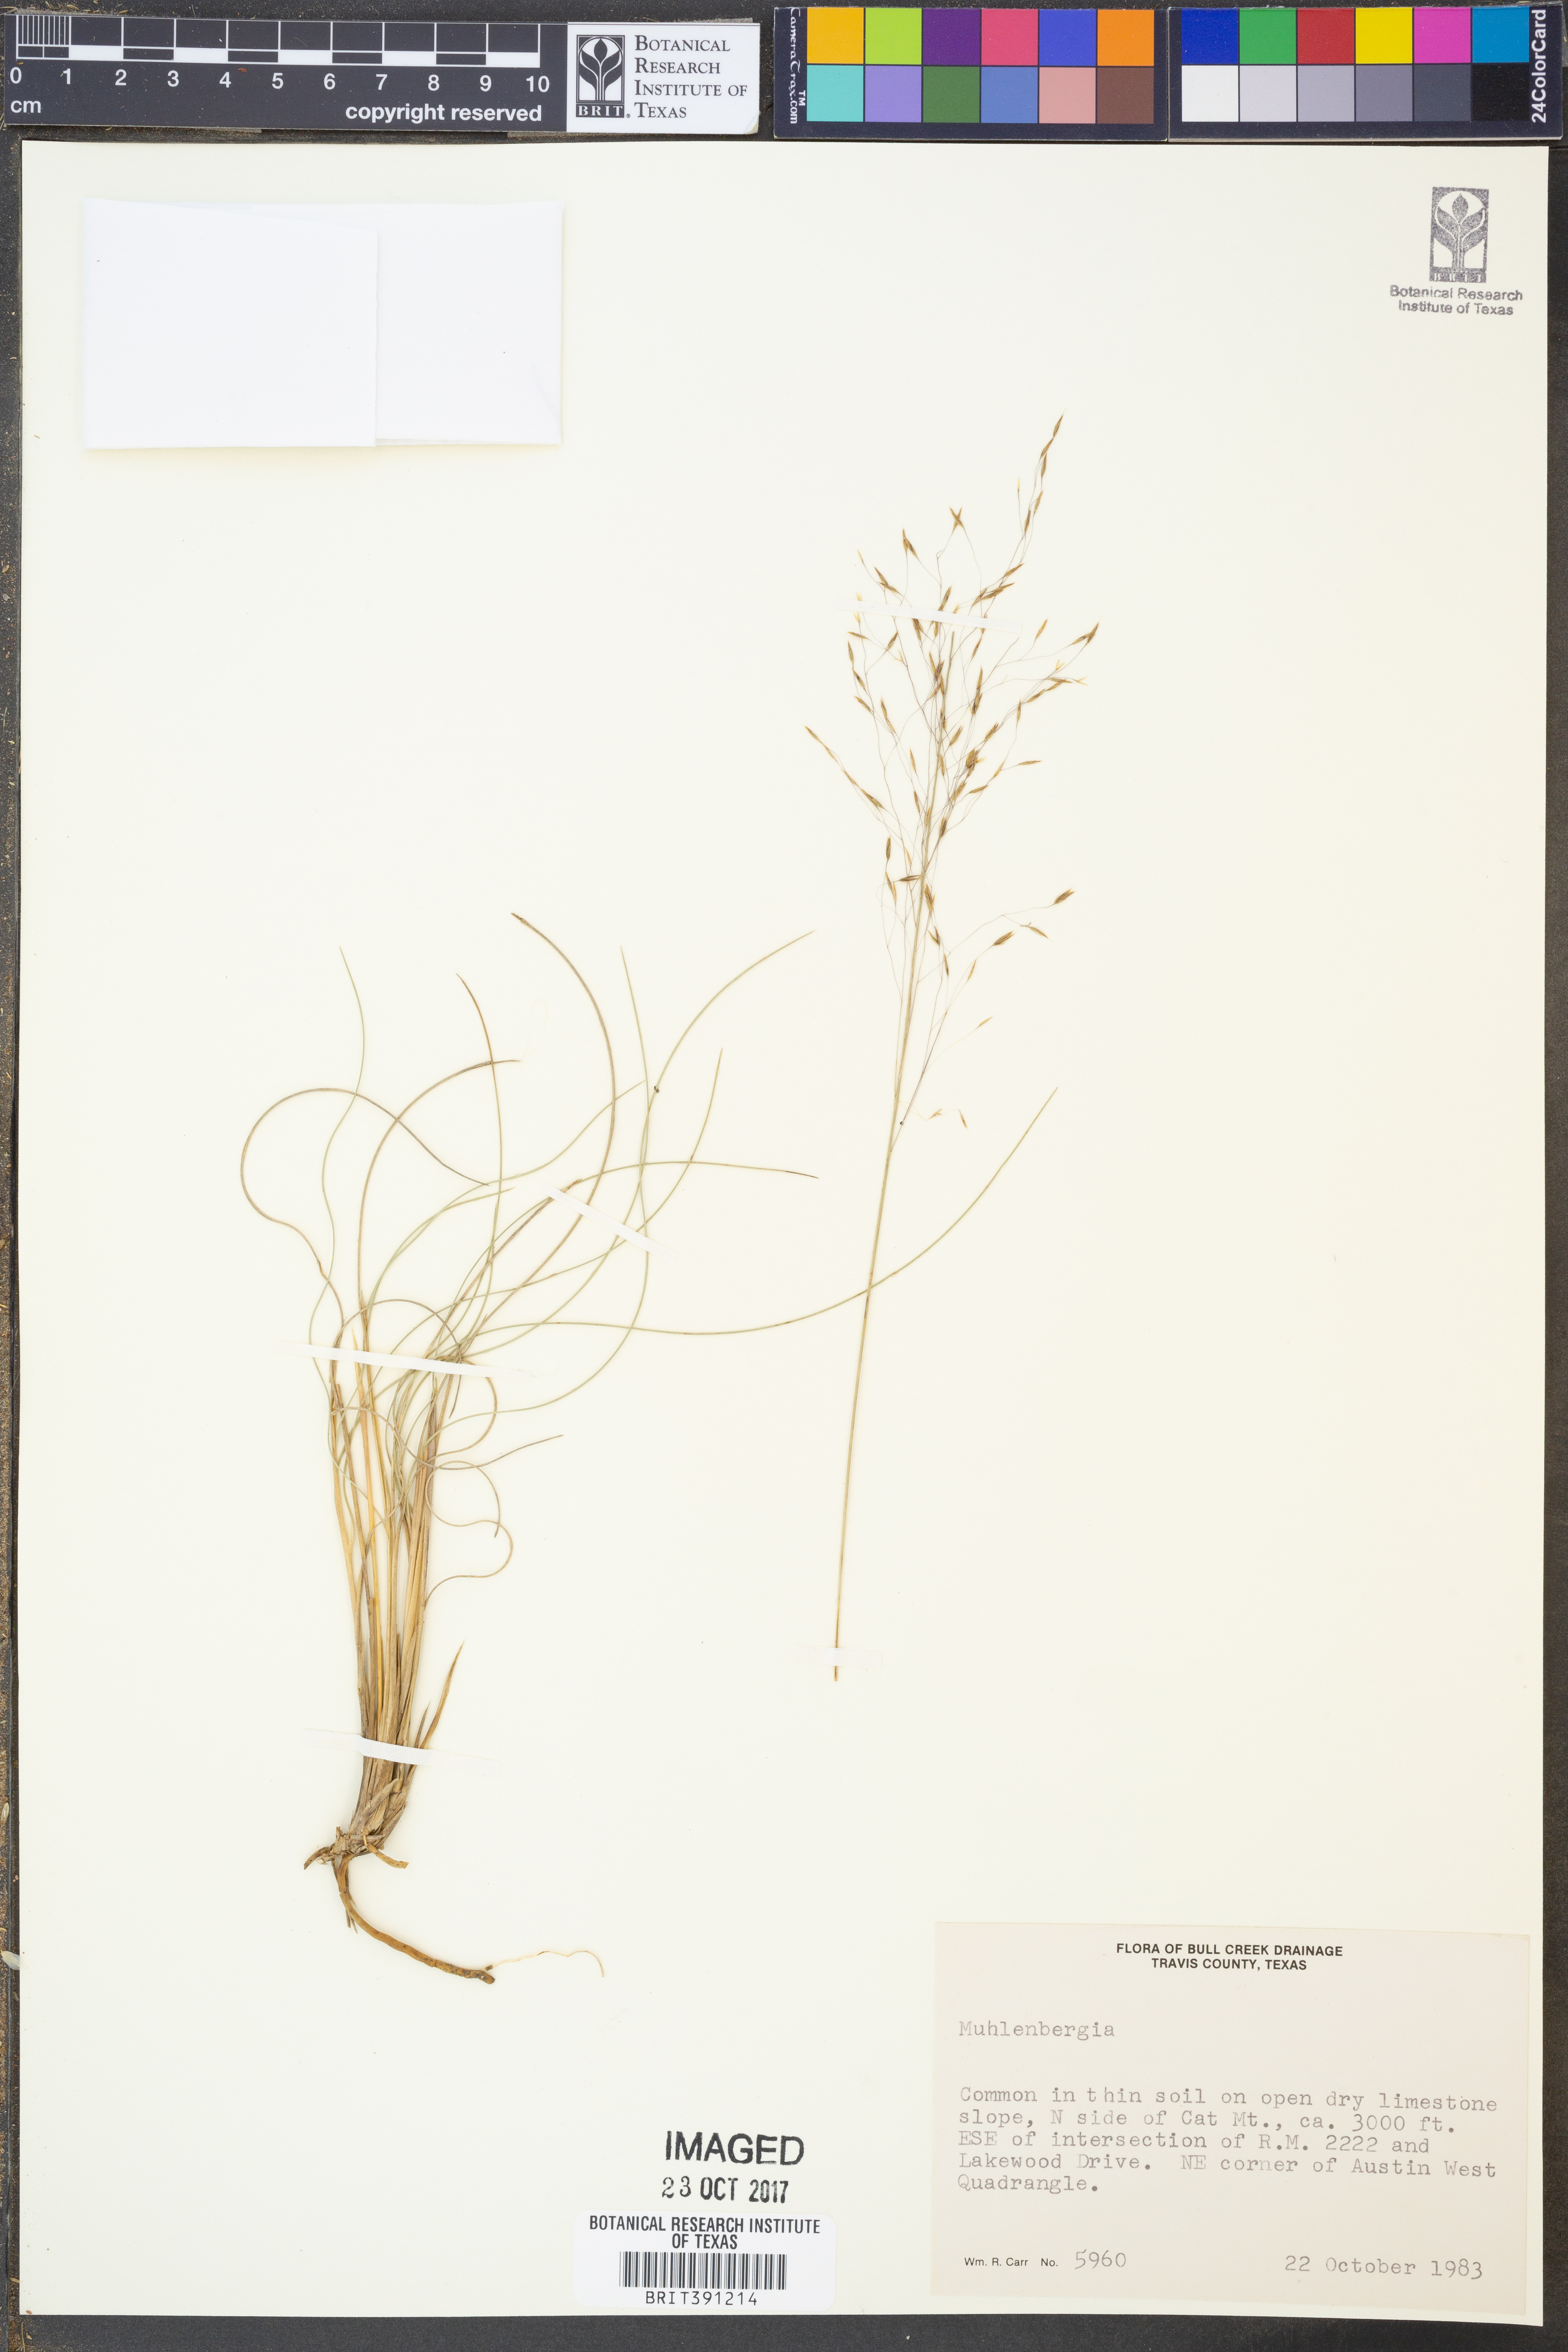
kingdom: Plantae
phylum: Tracheophyta
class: Liliopsida
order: Poales
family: Poaceae
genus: Muhlenbergia
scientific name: Muhlenbergia
